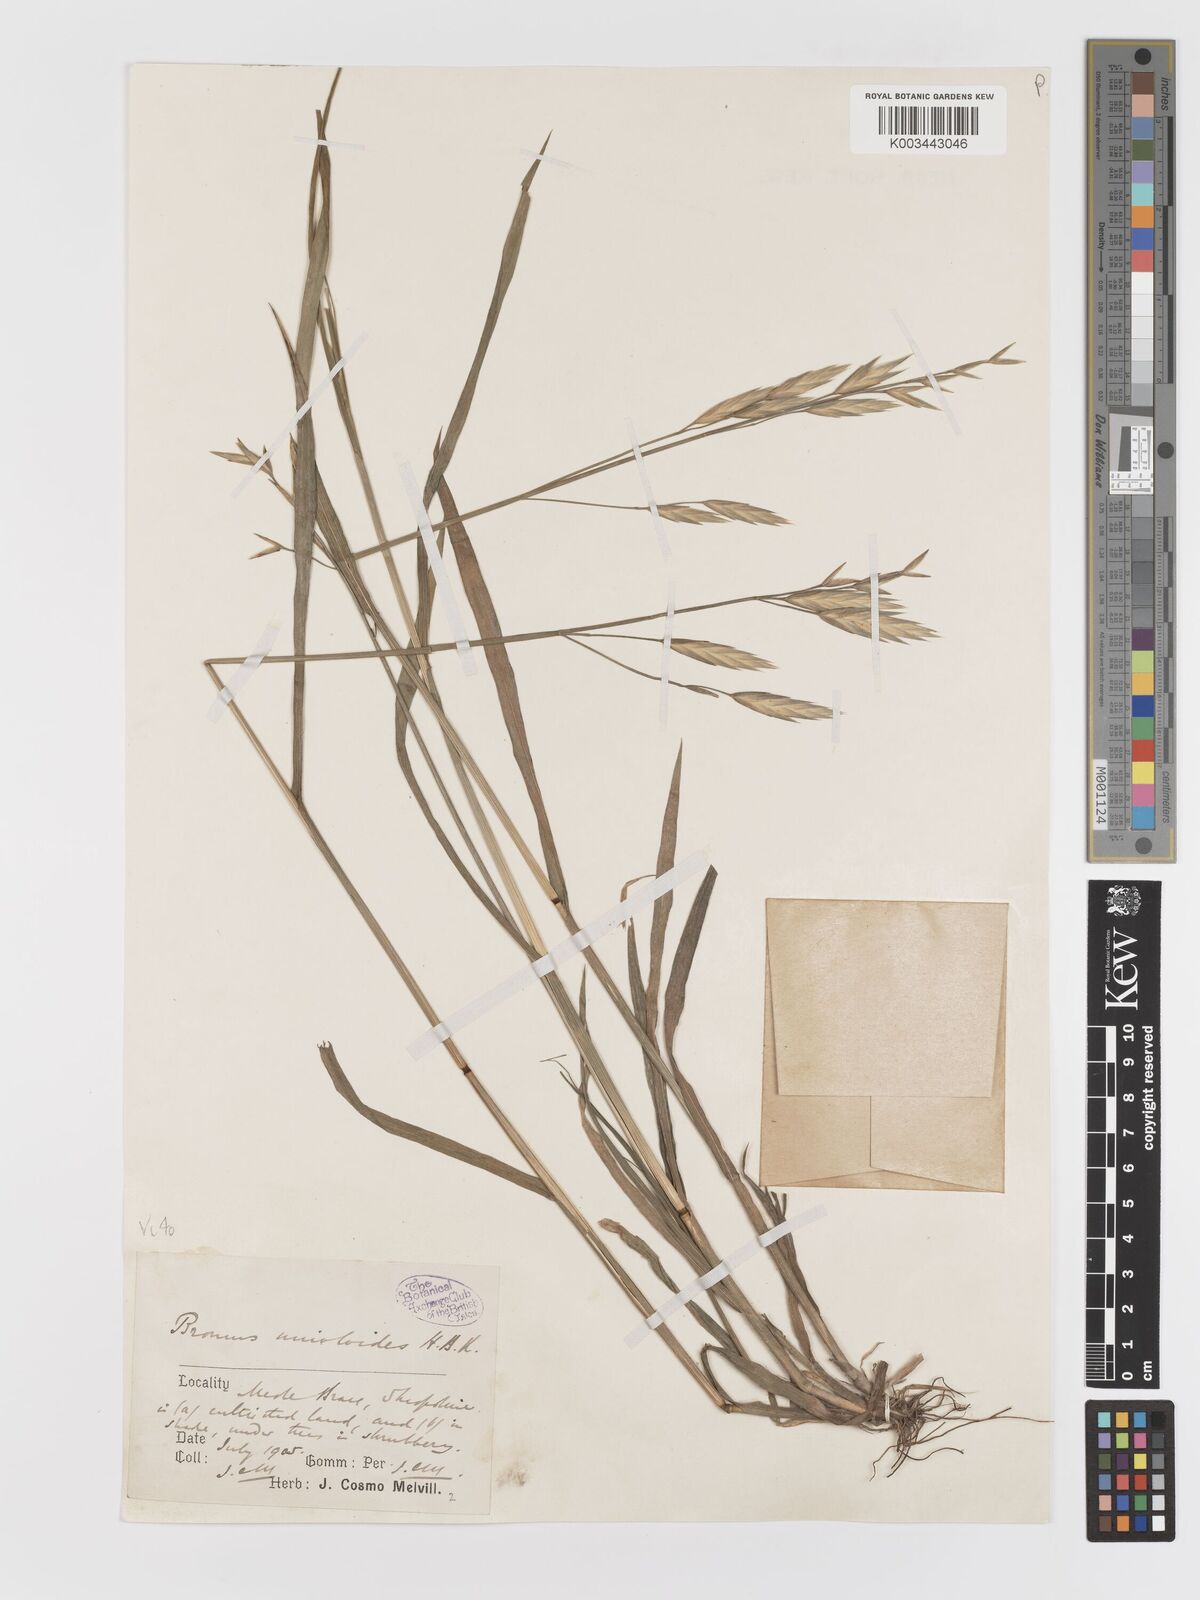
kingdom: Plantae
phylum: Tracheophyta
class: Liliopsida
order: Poales
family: Poaceae
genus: Bromus
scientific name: Bromus catharticus
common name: Rescuegrass
